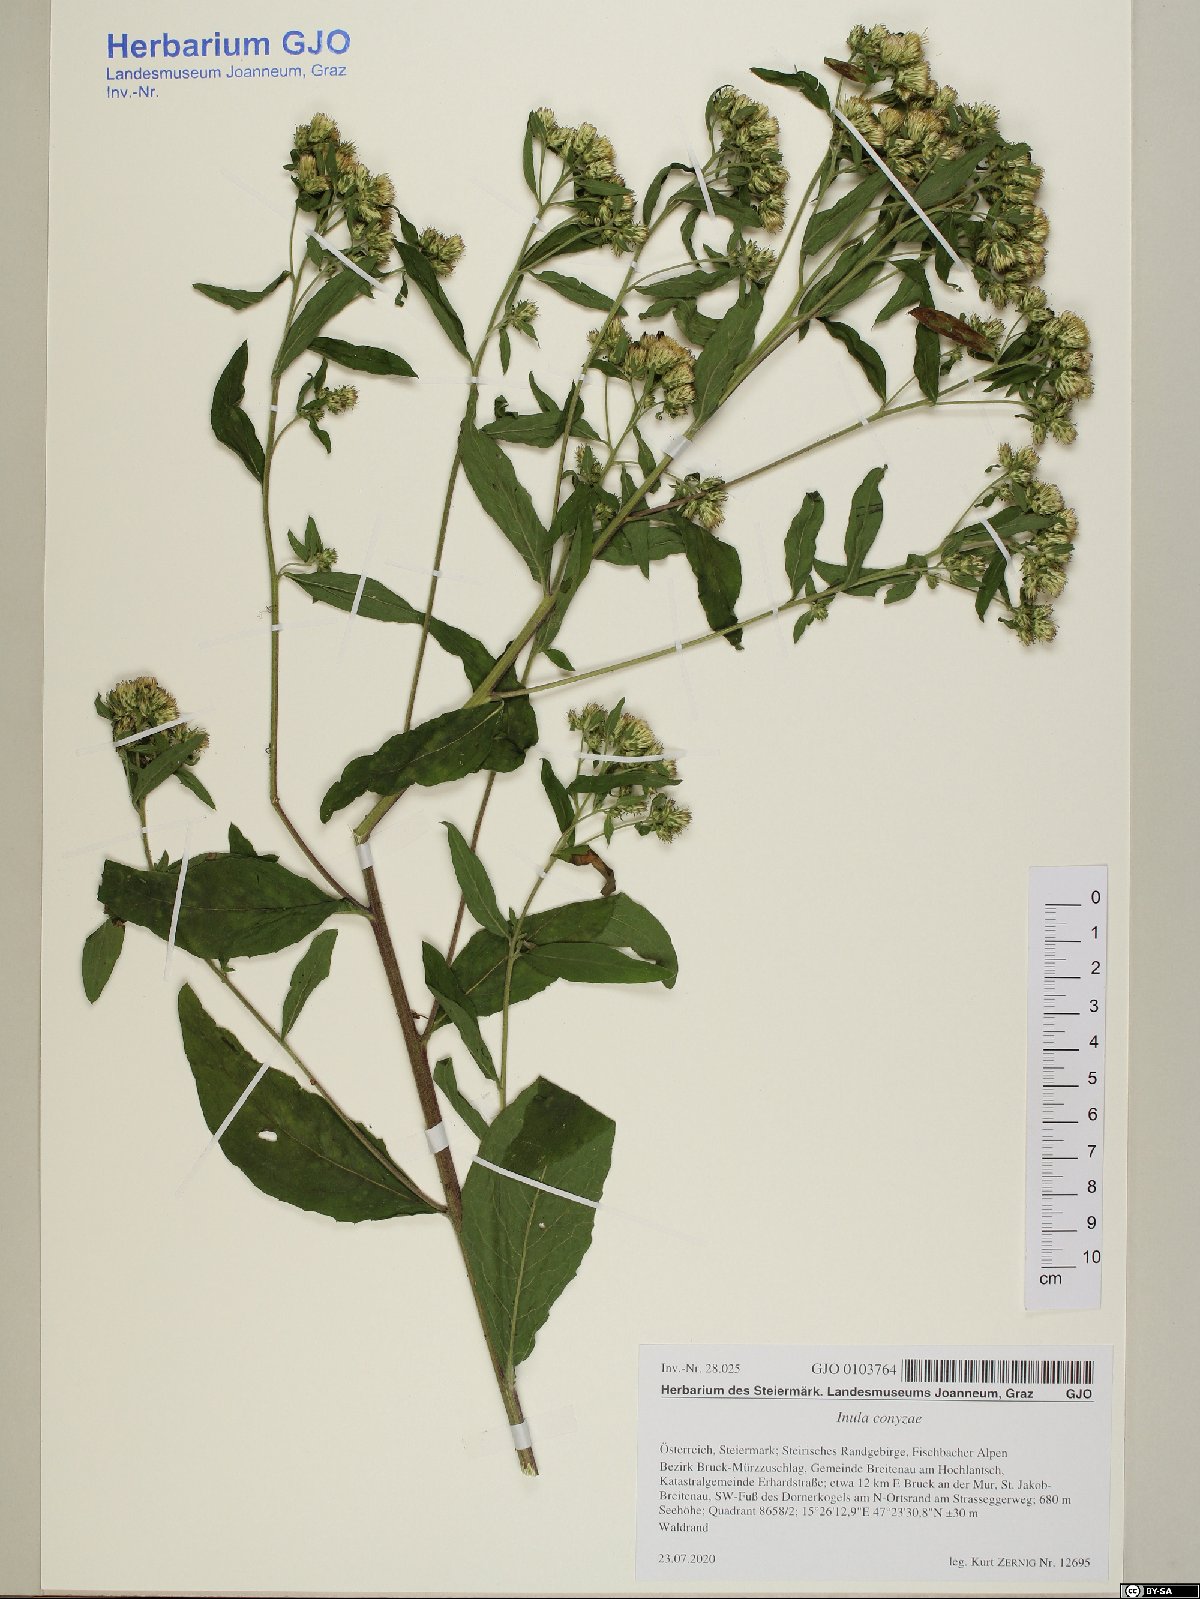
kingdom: Plantae
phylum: Tracheophyta
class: Magnoliopsida
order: Asterales
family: Asteraceae
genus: Pentanema
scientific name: Pentanema squarrosum
